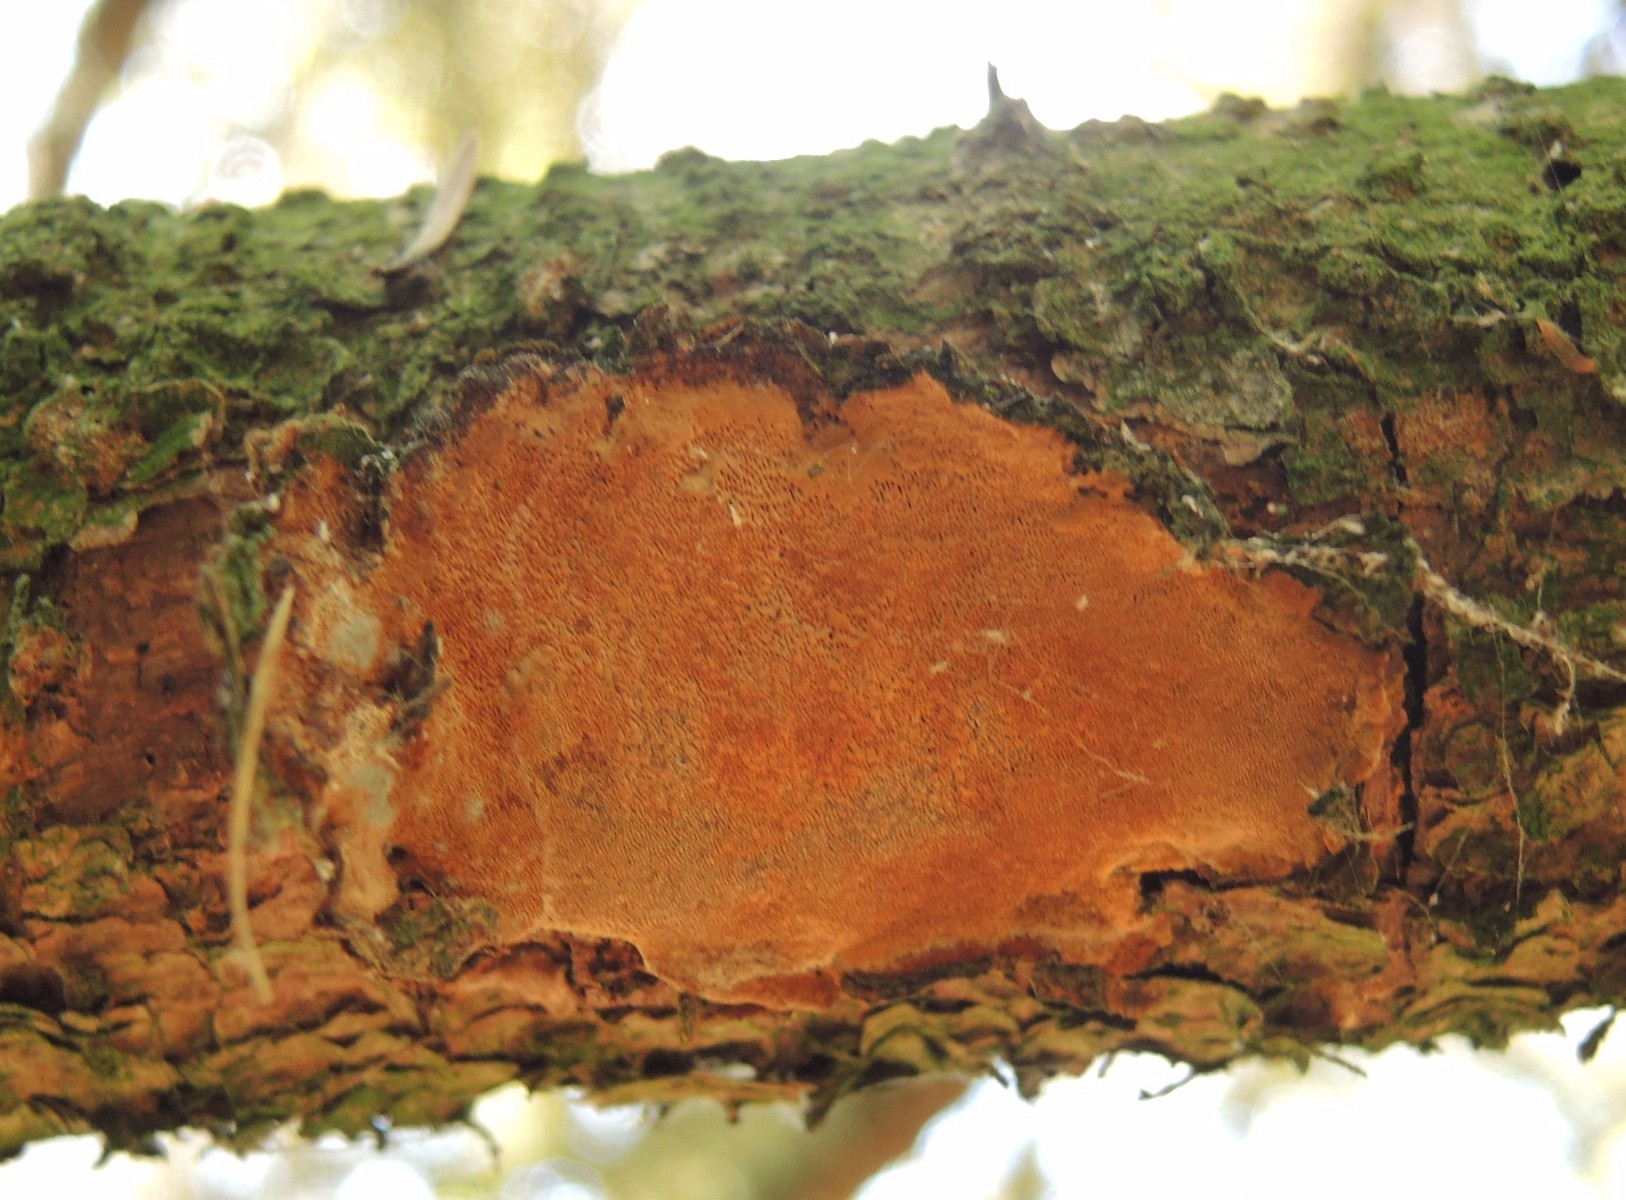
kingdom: Fungi
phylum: Basidiomycota
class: Agaricomycetes
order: Hymenochaetales
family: Hymenochaetaceae
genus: Fuscoporia
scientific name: Fuscoporia ferrea
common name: skorpe-ildporesvamp
